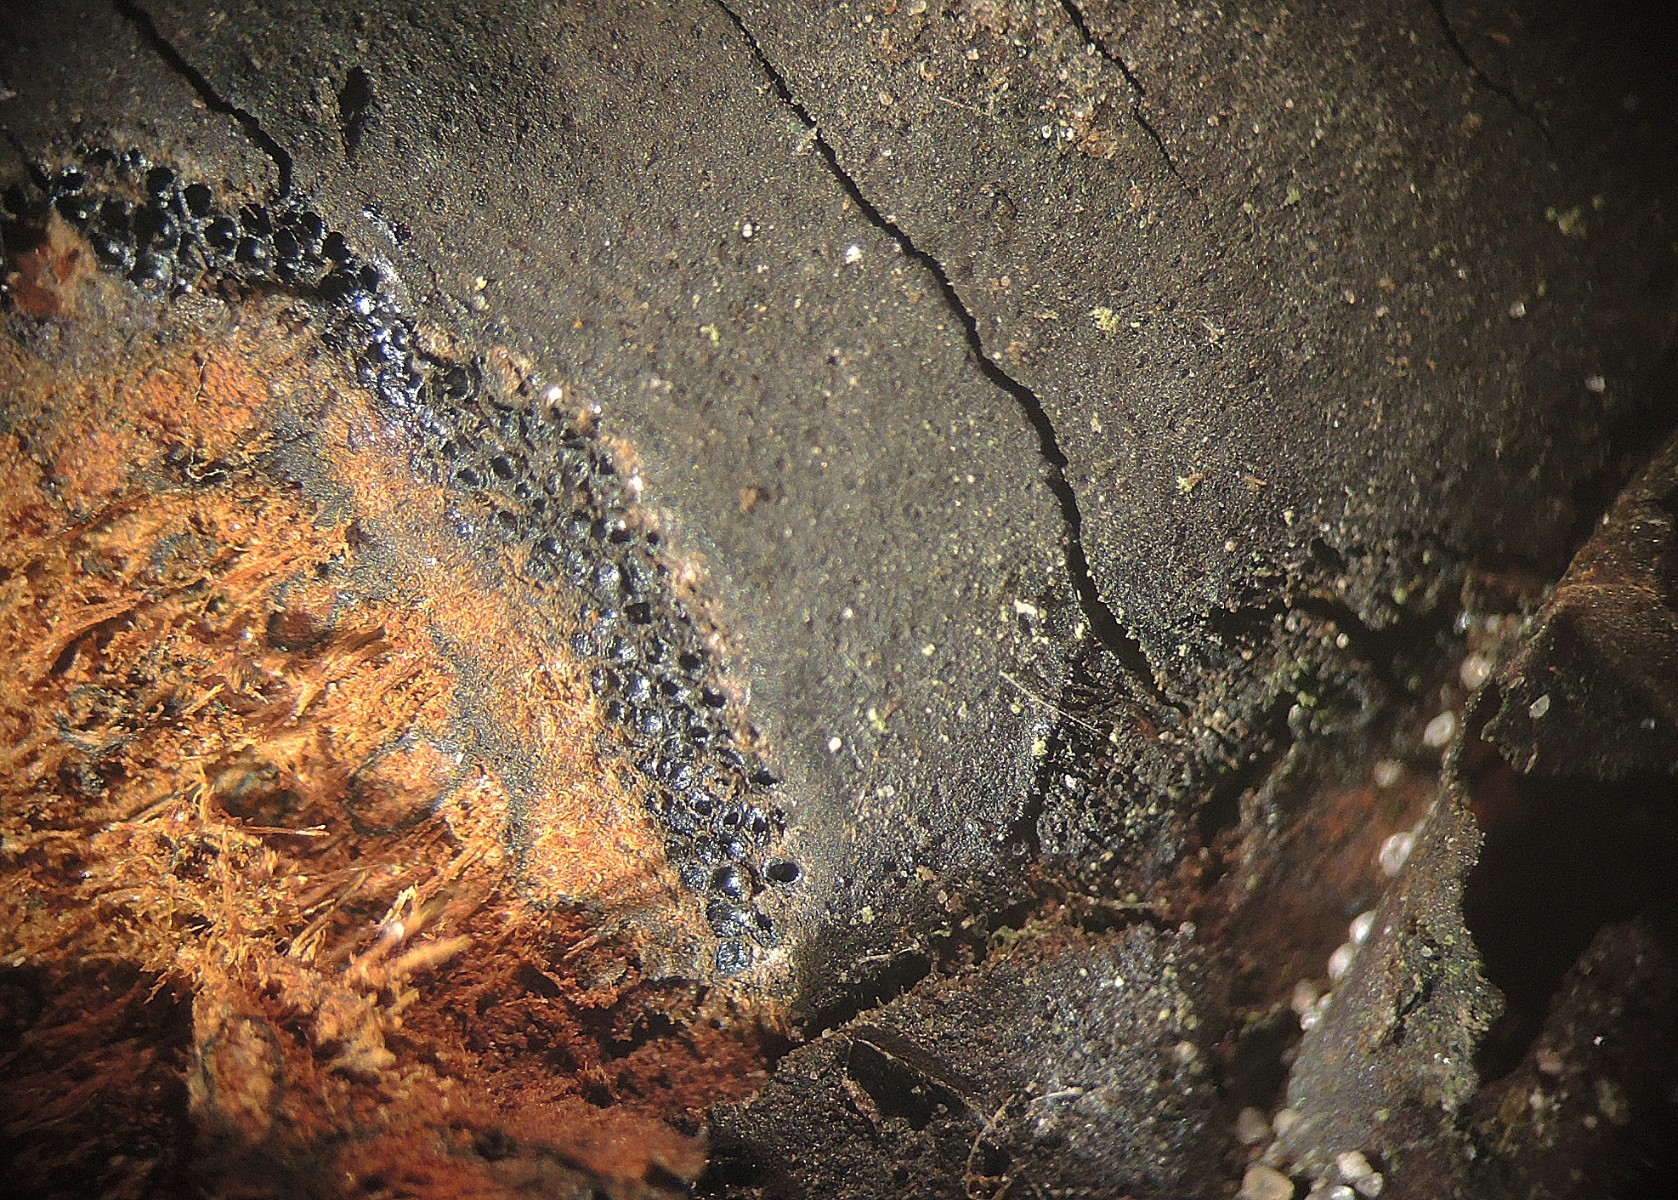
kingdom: Fungi
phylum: Ascomycota
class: Sordariomycetes
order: Xylariales
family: Diatrypaceae
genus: Diatrype
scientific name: Diatrype decorticata
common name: barksprænger-kulskorpe
